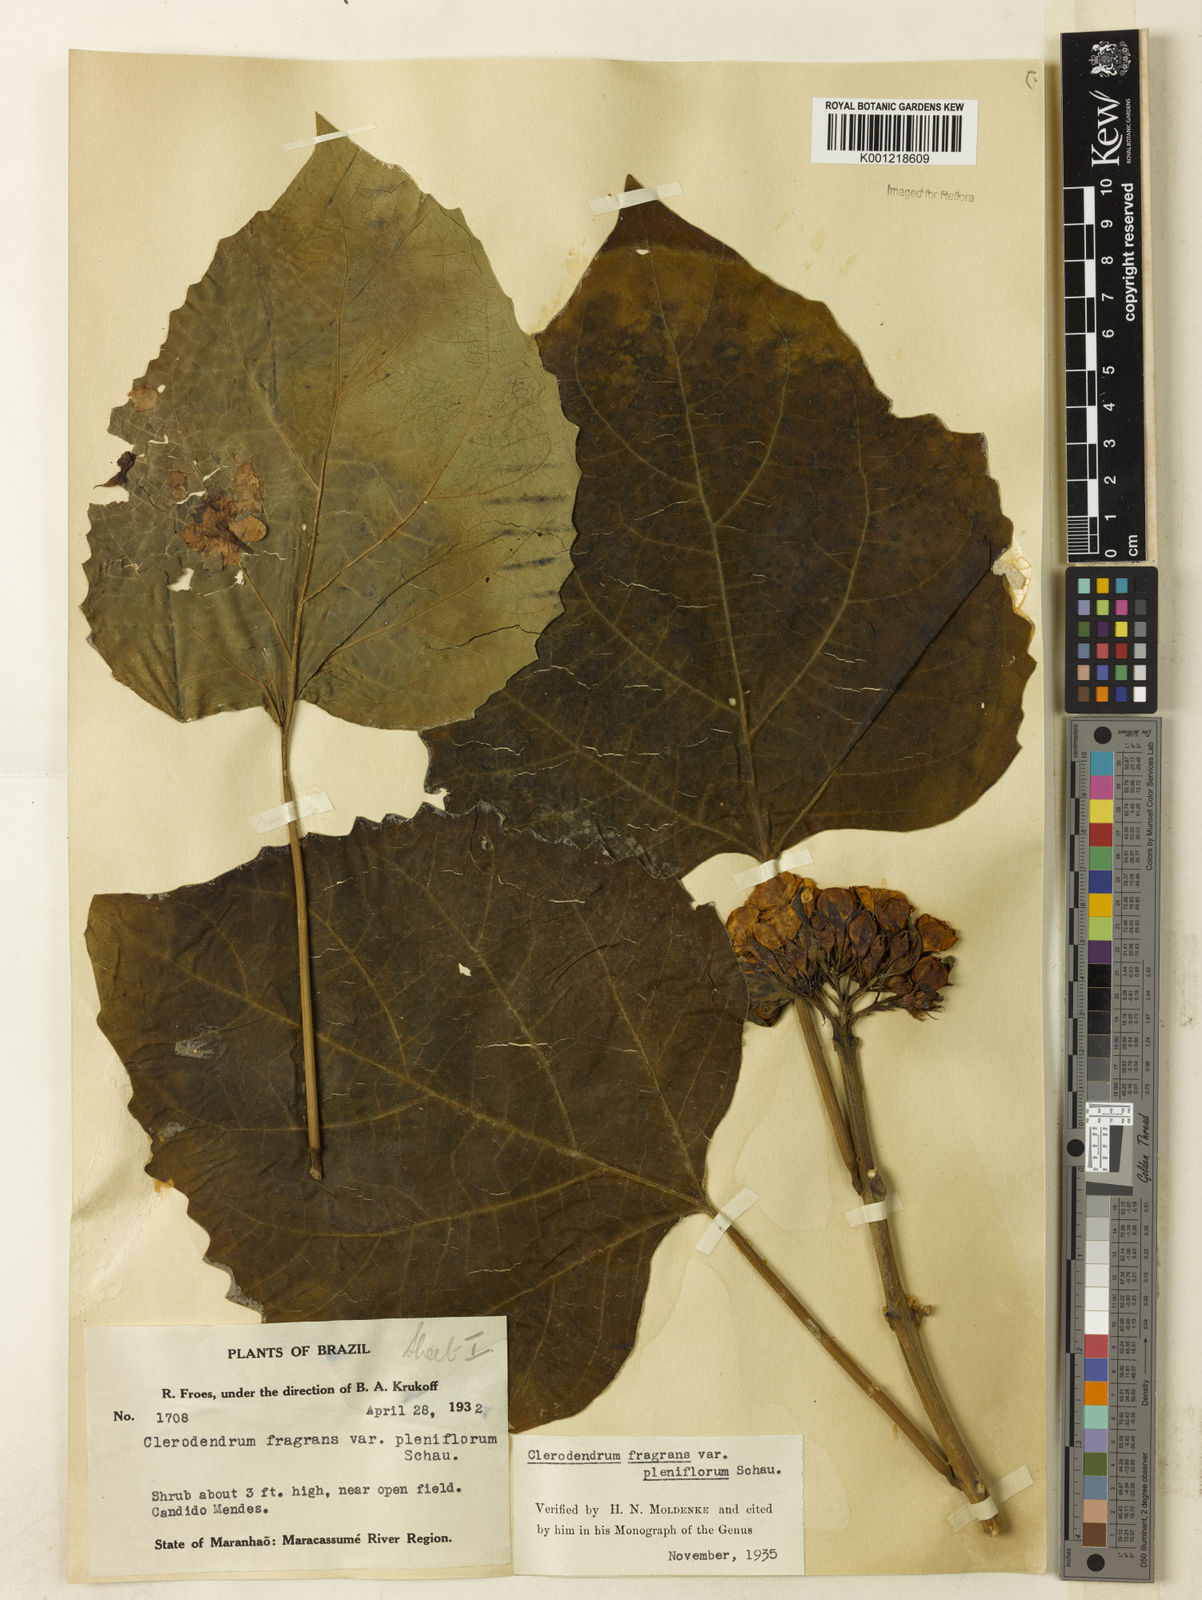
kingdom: Plantae
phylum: Tracheophyta
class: Magnoliopsida
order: Lamiales
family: Lamiaceae
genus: Clerodendrum
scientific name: Clerodendrum chinense
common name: Stickbush
